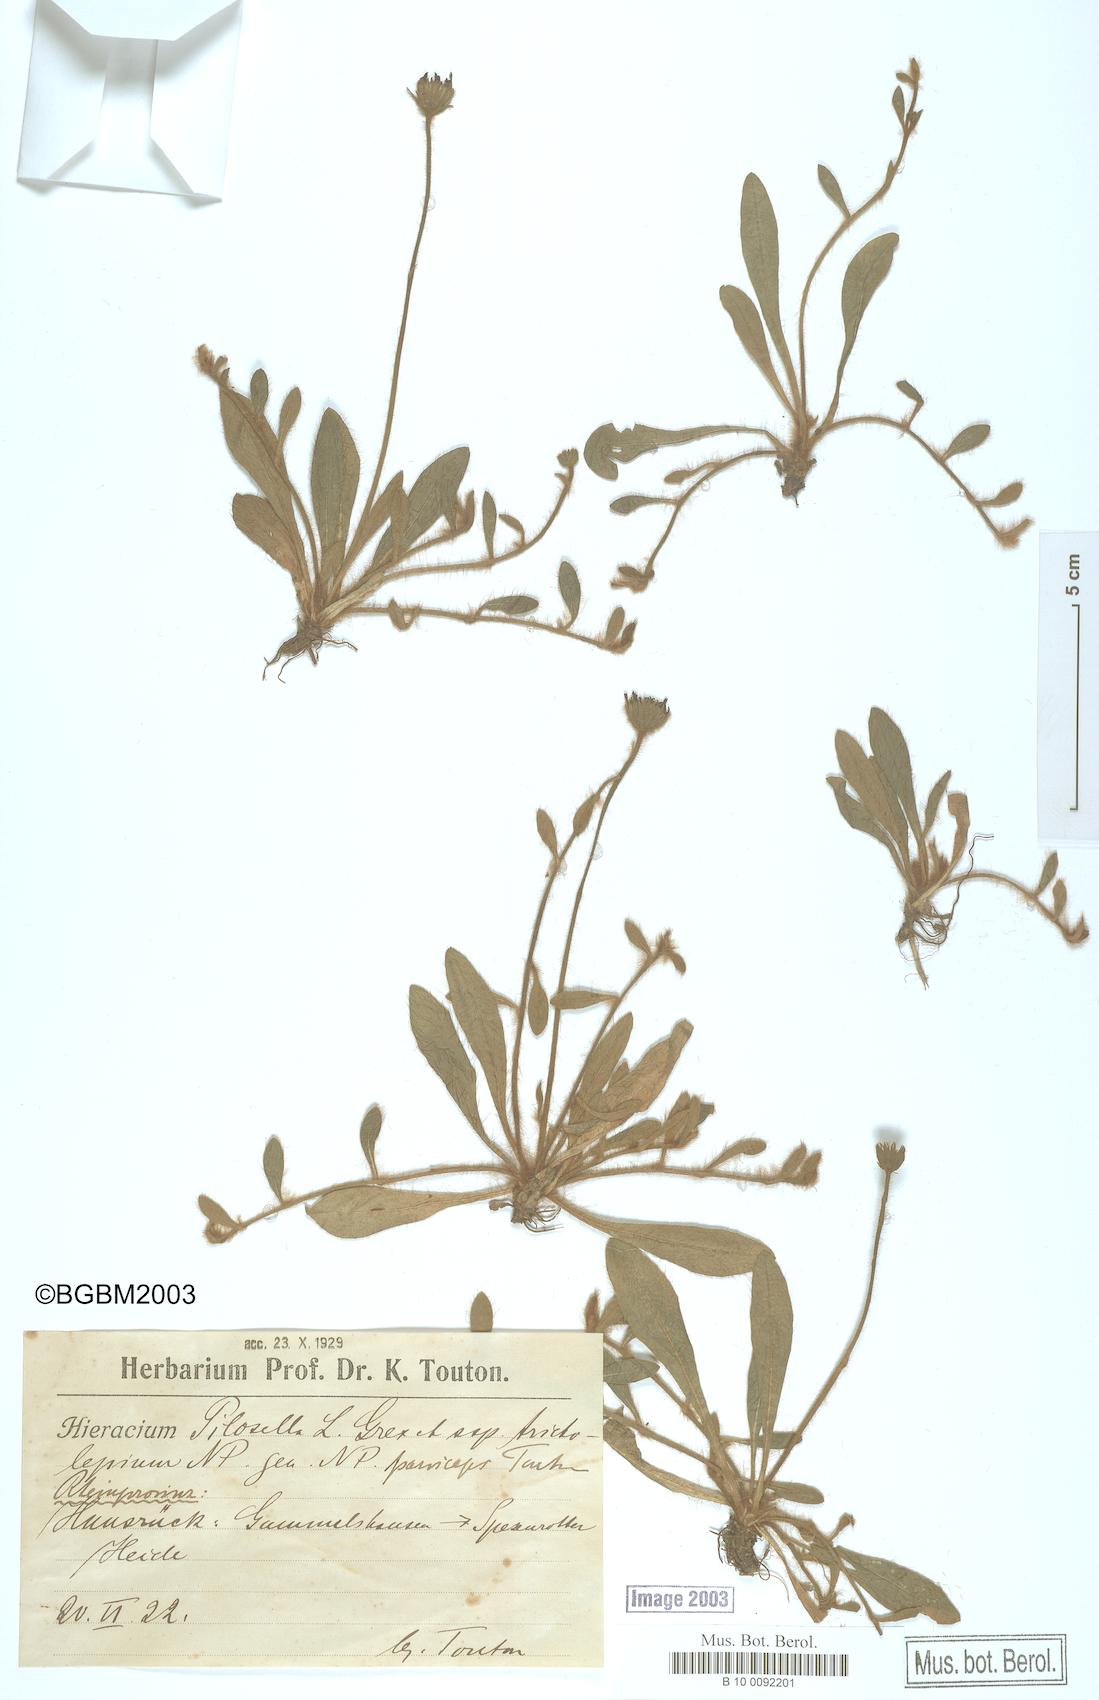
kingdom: Plantae
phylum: Tracheophyta
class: Magnoliopsida
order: Asterales
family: Asteraceae
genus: Pilosella
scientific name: Pilosella officinarum
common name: Mouse-ear hawkweed
